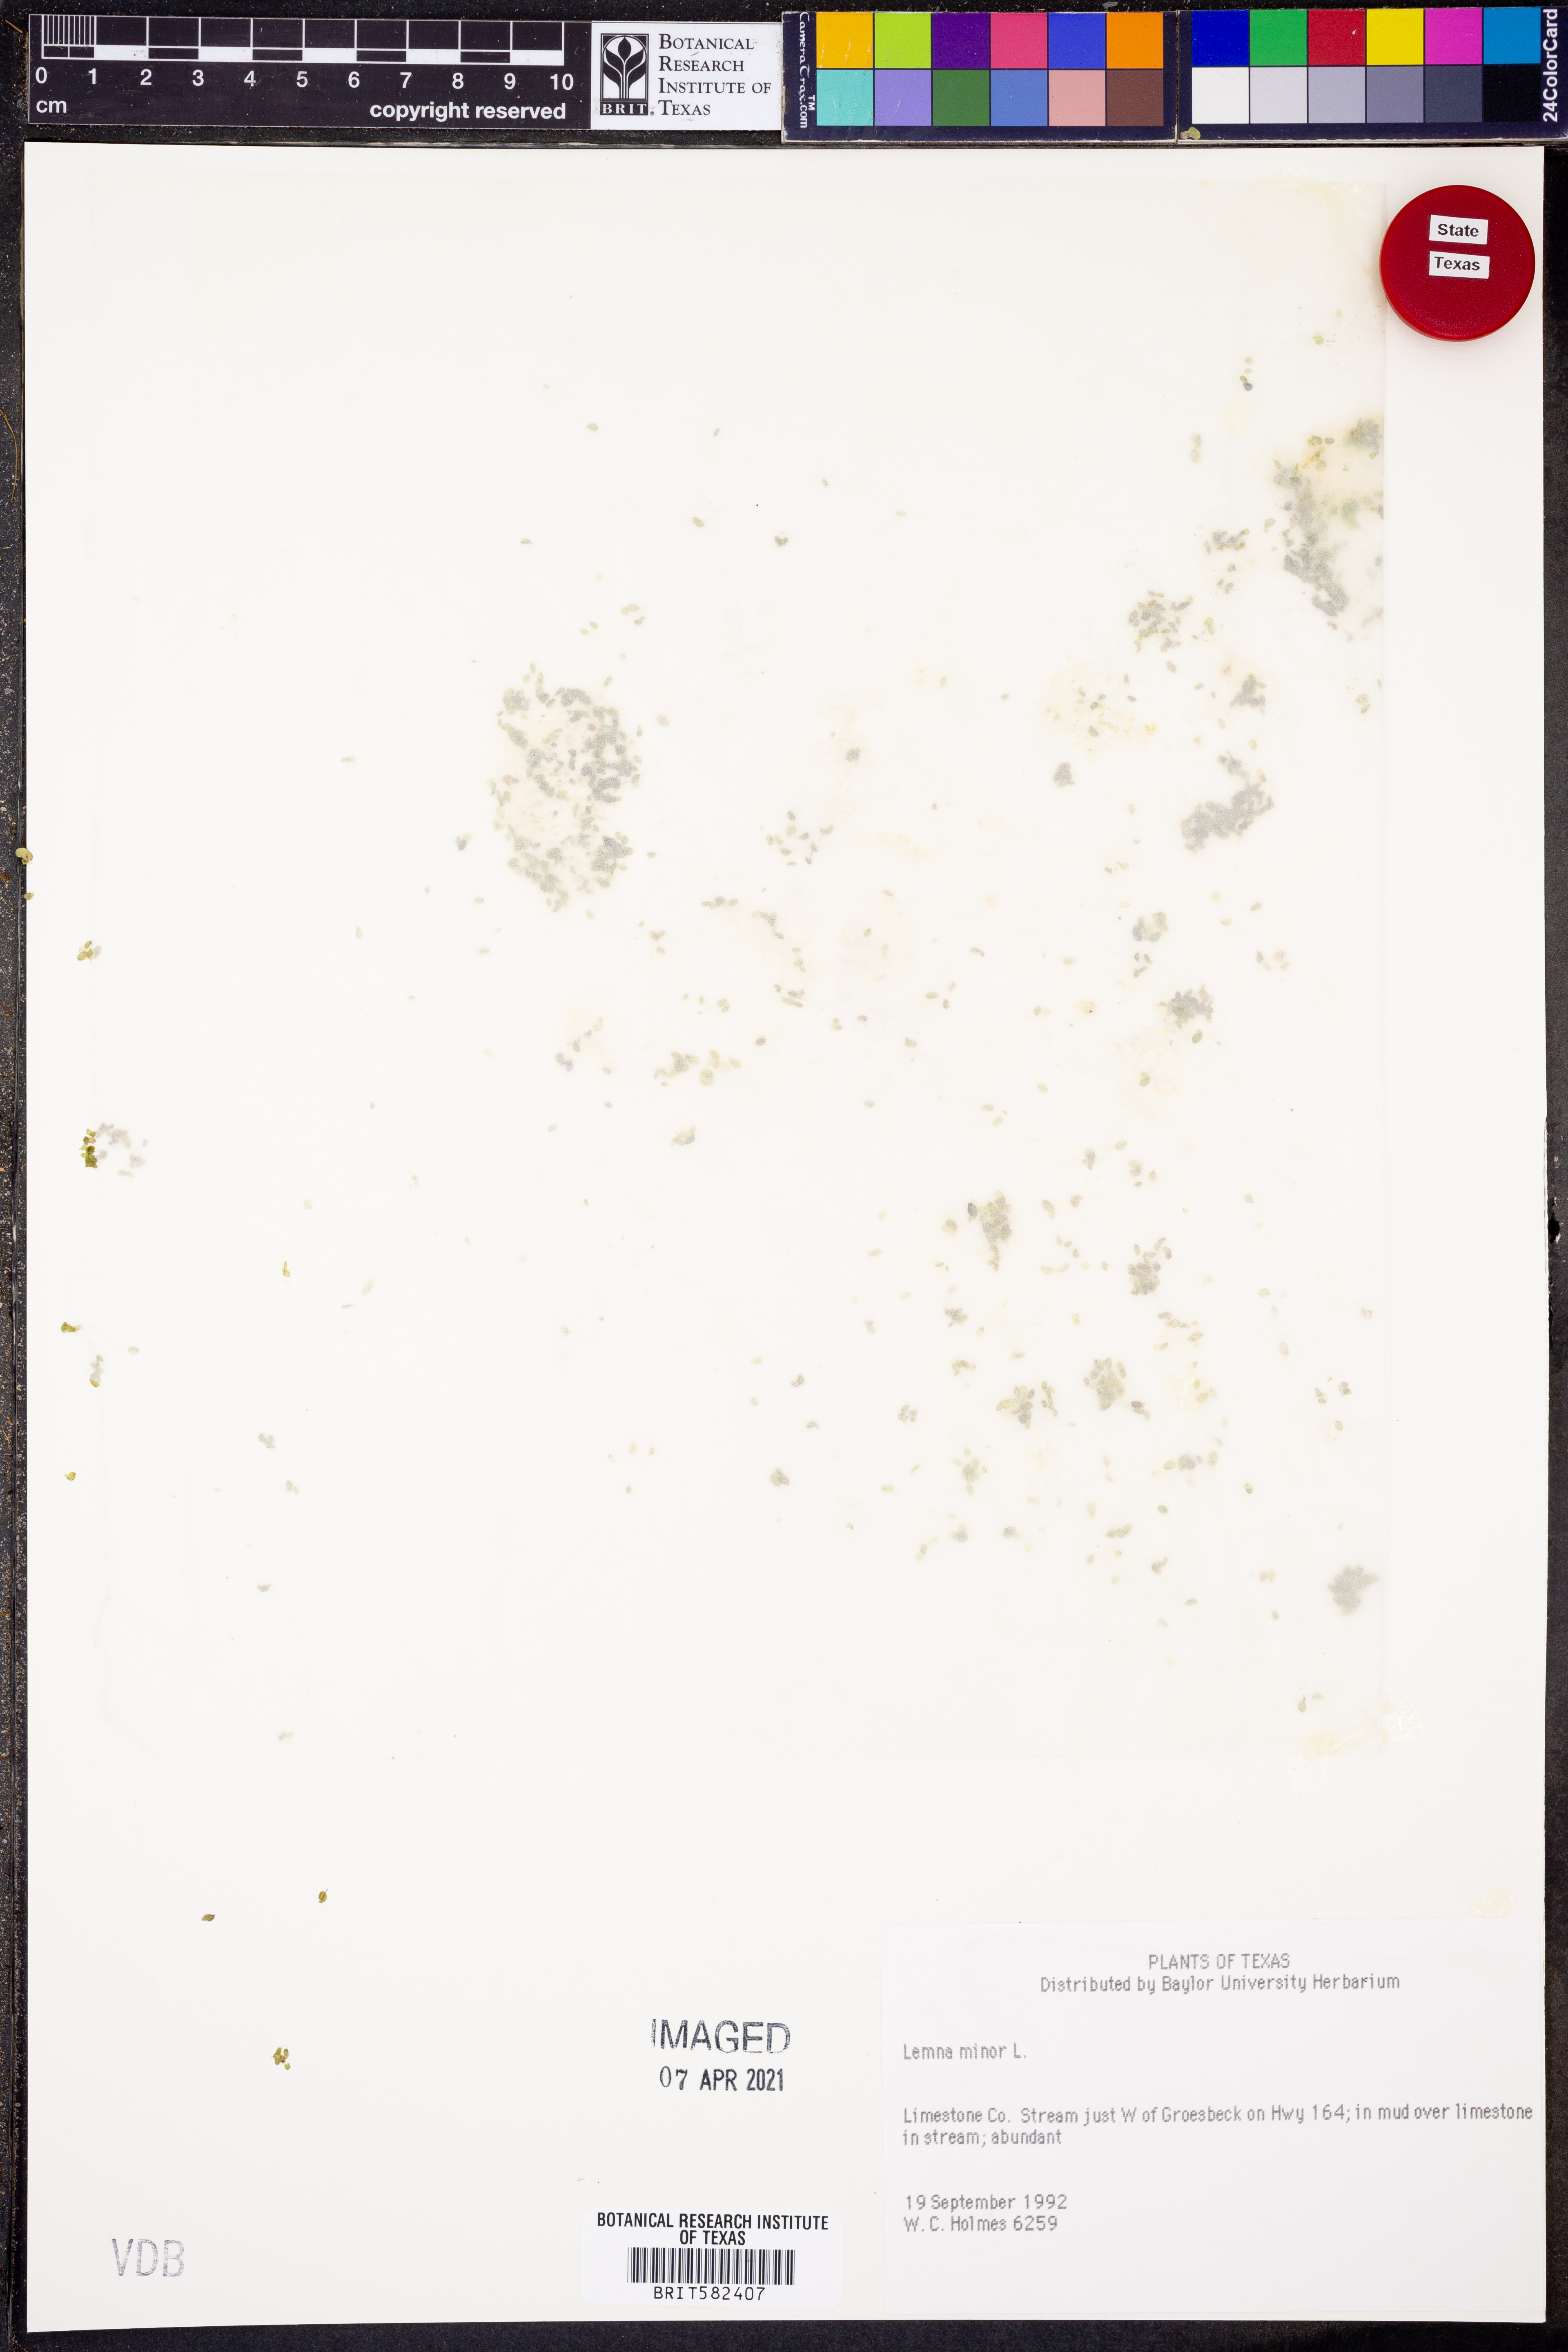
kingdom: Plantae
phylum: Tracheophyta
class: Liliopsida
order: Alismatales
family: Araceae
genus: Lemna
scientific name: Lemna minor
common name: Common duckweed
